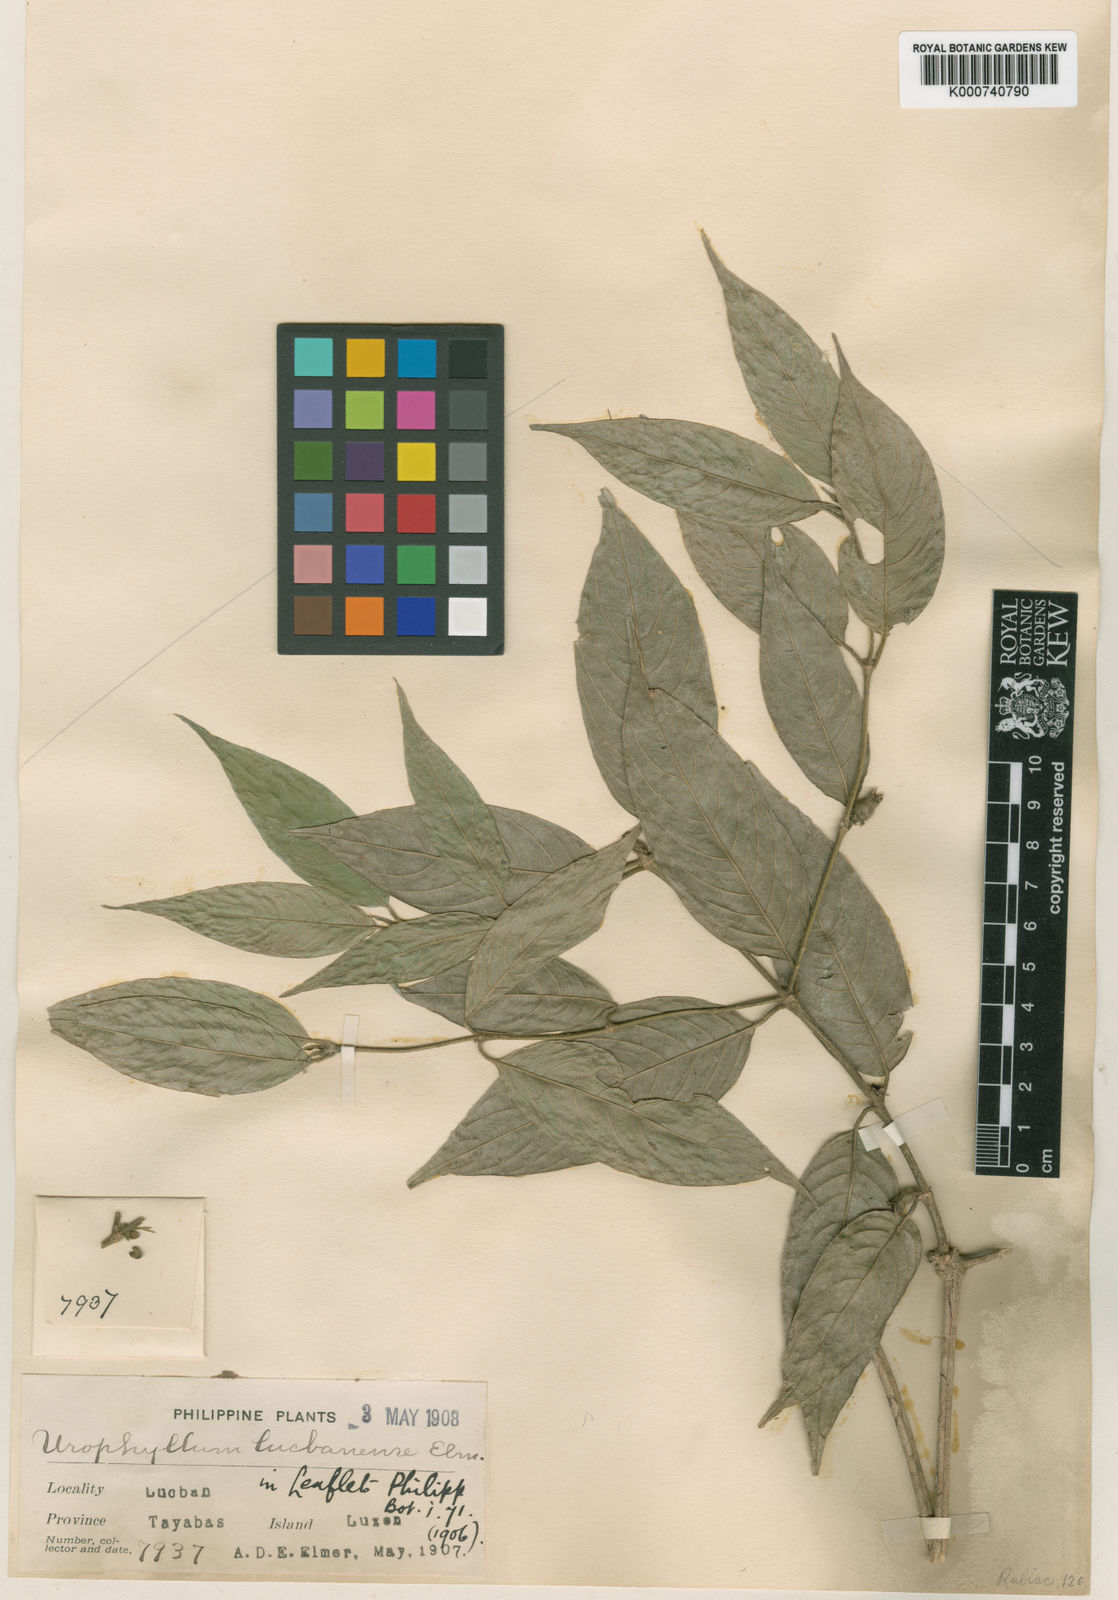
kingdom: Plantae
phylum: Tracheophyta
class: Magnoliopsida
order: Gentianales
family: Rubiaceae
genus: Praravinia
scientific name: Praravinia lucbanensis
